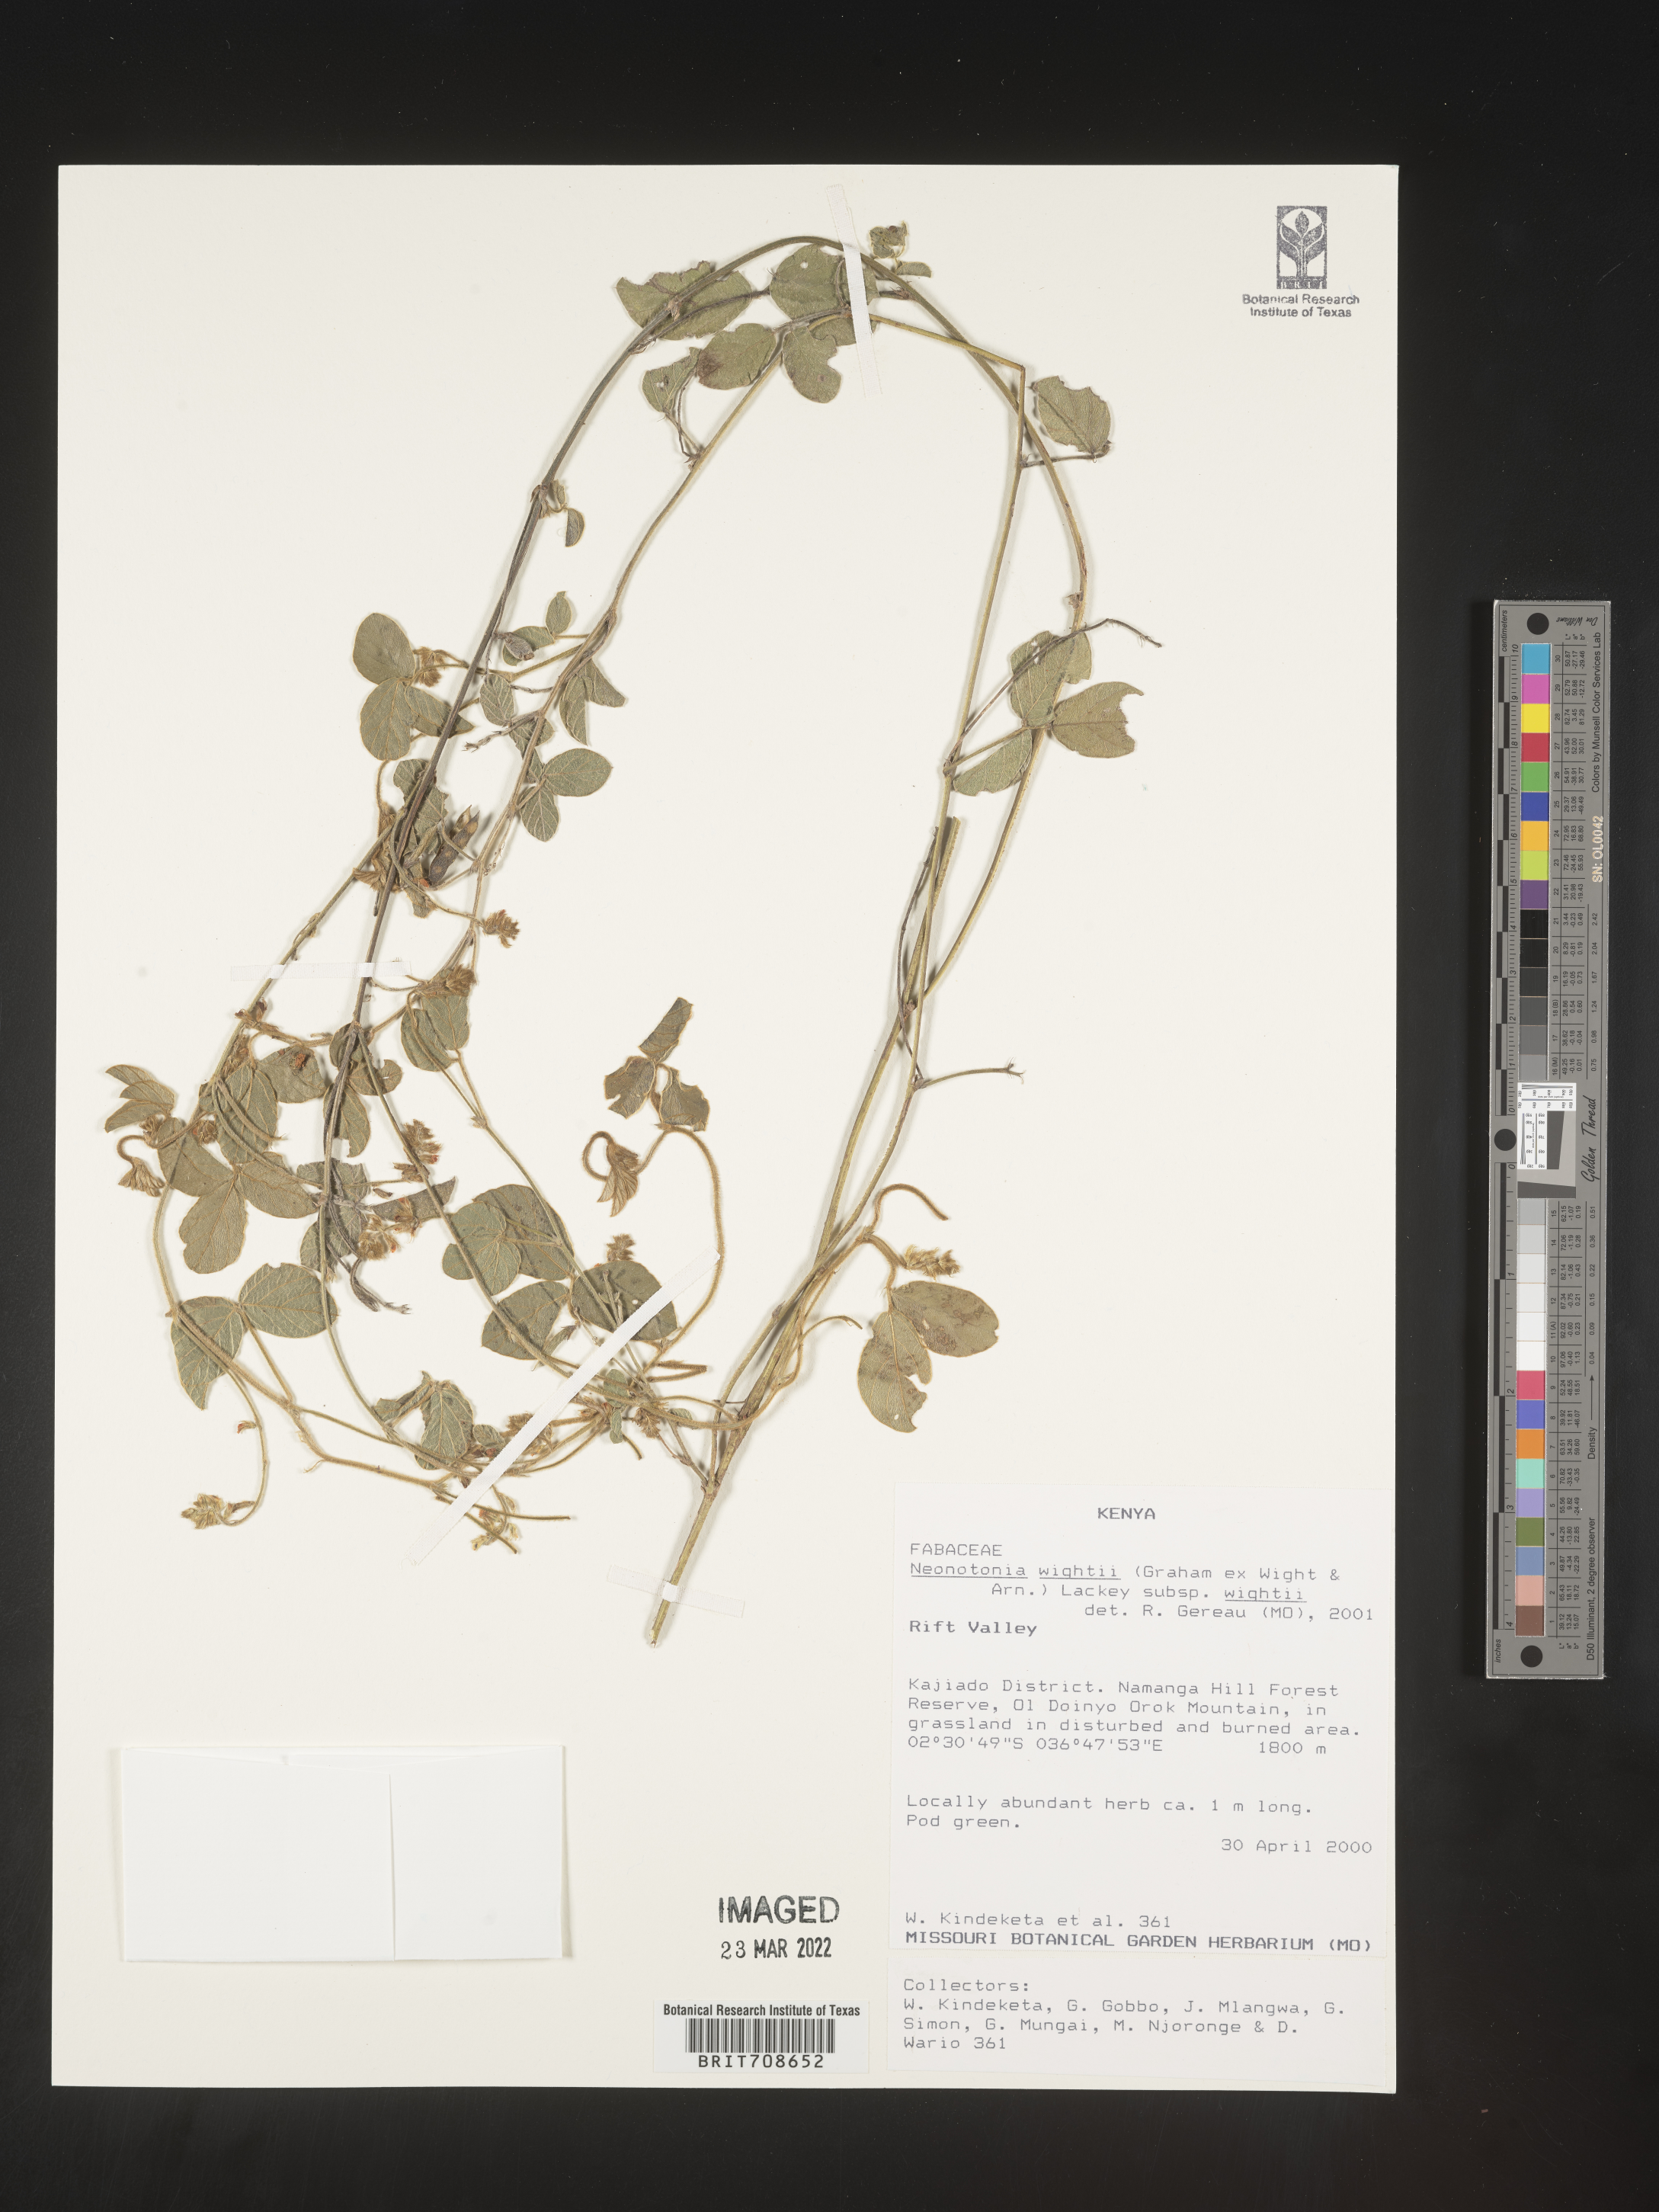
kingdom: Plantae
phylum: Tracheophyta
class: Magnoliopsida
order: Fabales
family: Fabaceae
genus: Neonotonia
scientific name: Neonotonia
